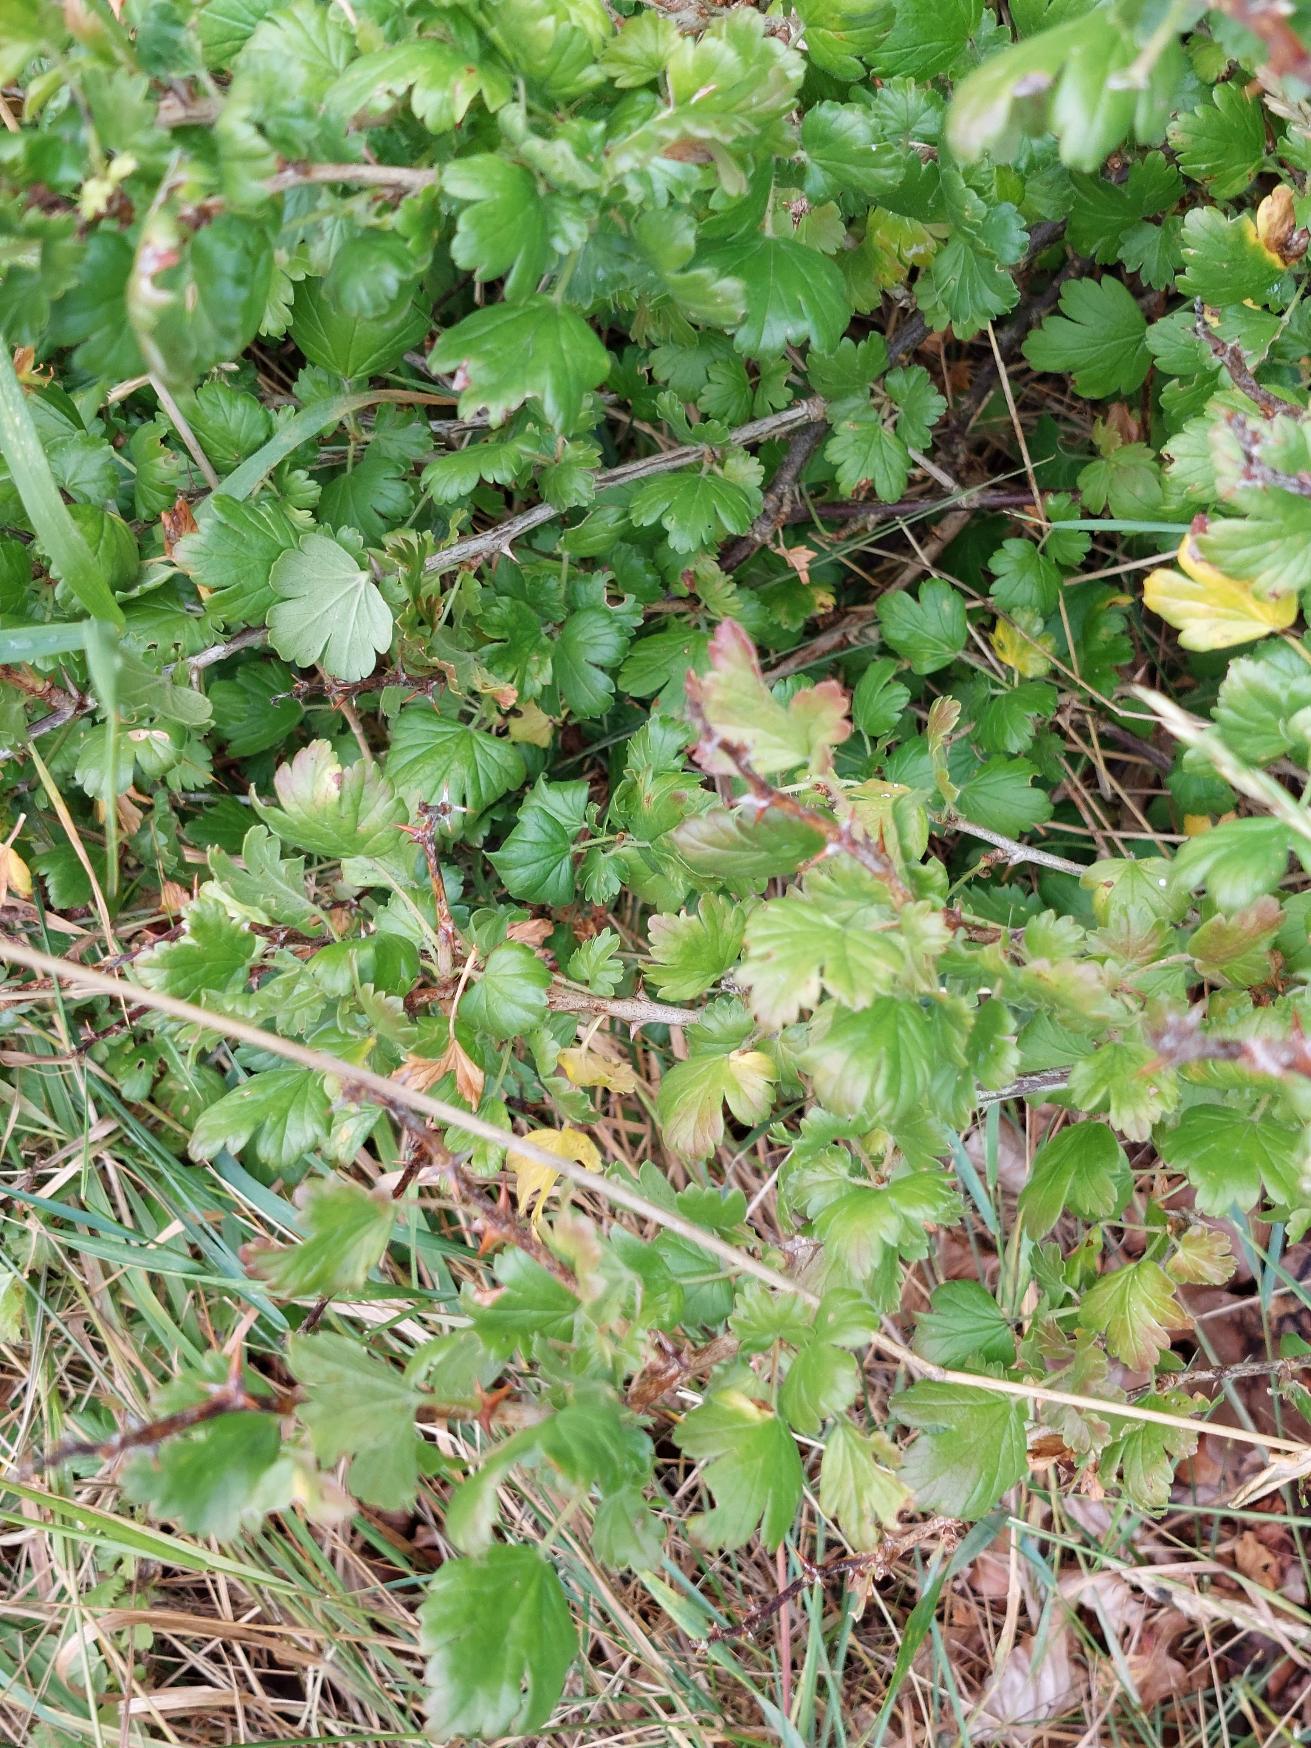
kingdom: Plantae
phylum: Tracheophyta
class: Magnoliopsida
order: Saxifragales
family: Grossulariaceae
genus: Ribes
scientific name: Ribes uva-crispa
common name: Stikkelsbær
